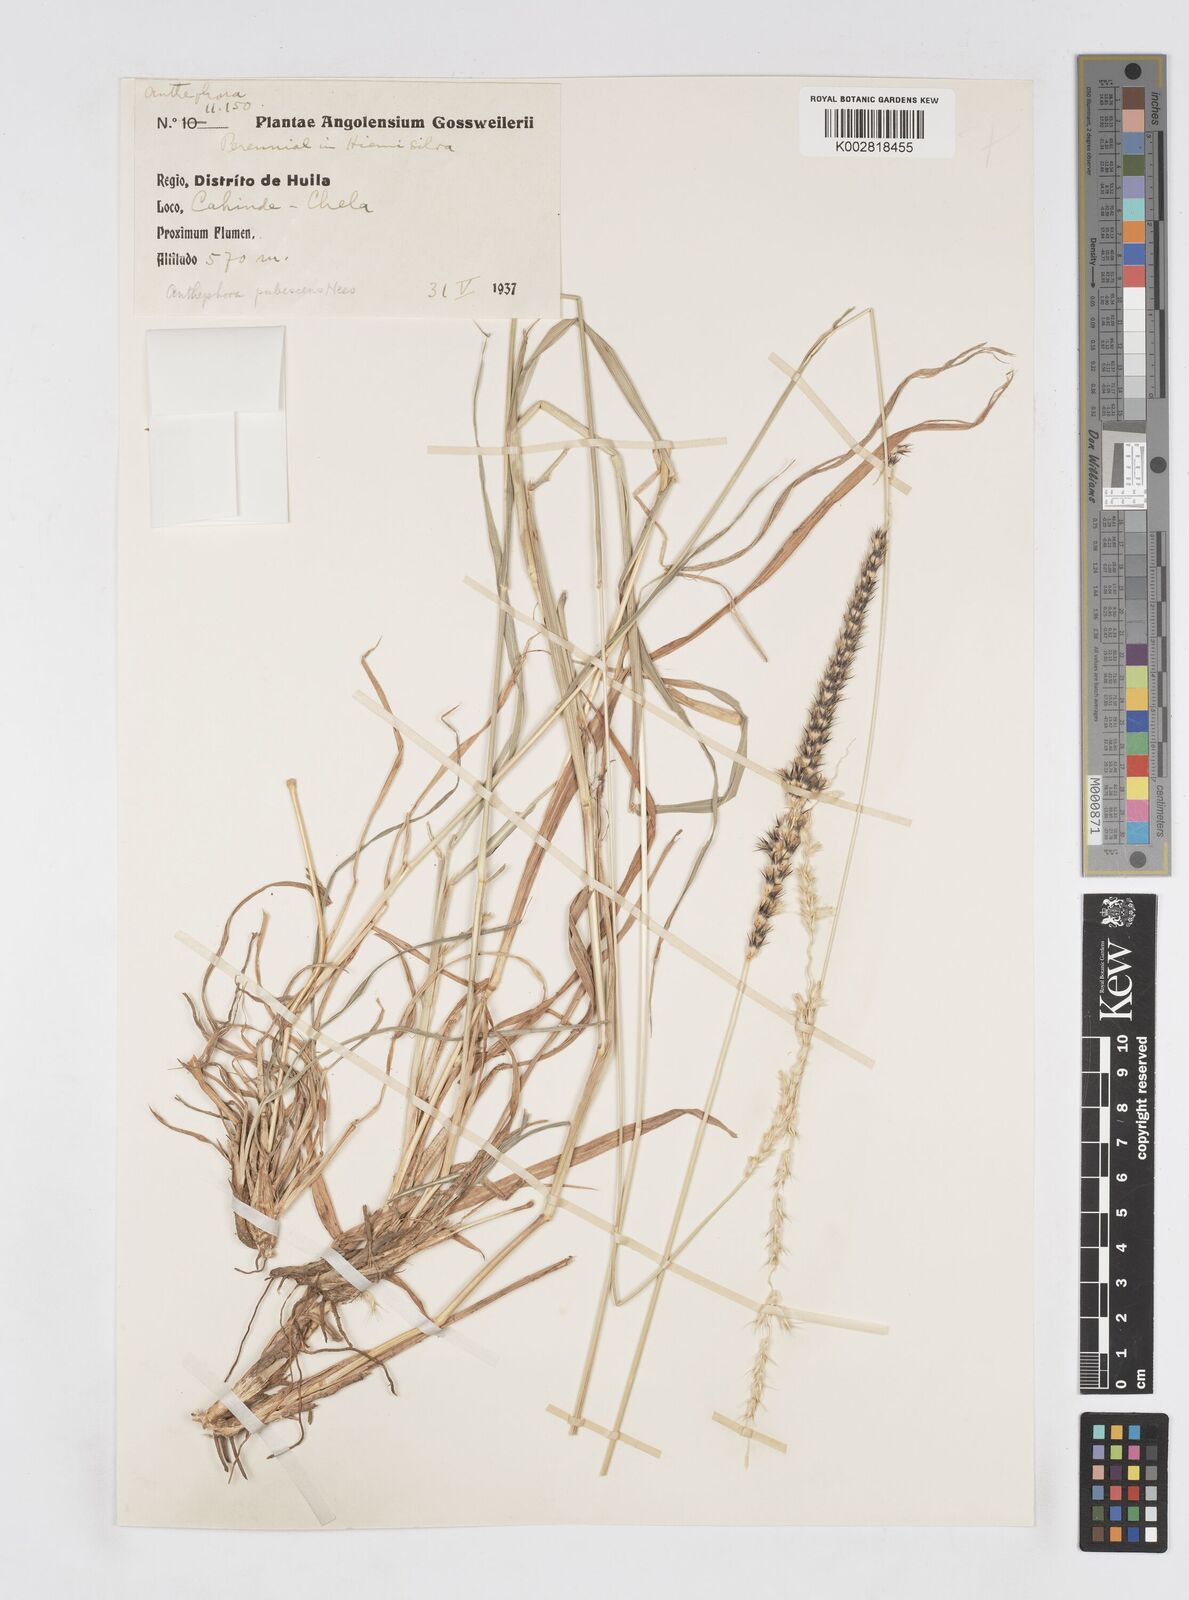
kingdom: Plantae
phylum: Tracheophyta
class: Liliopsida
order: Poales
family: Poaceae
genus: Anthephora
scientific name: Anthephora pubescens
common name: Wool grass
